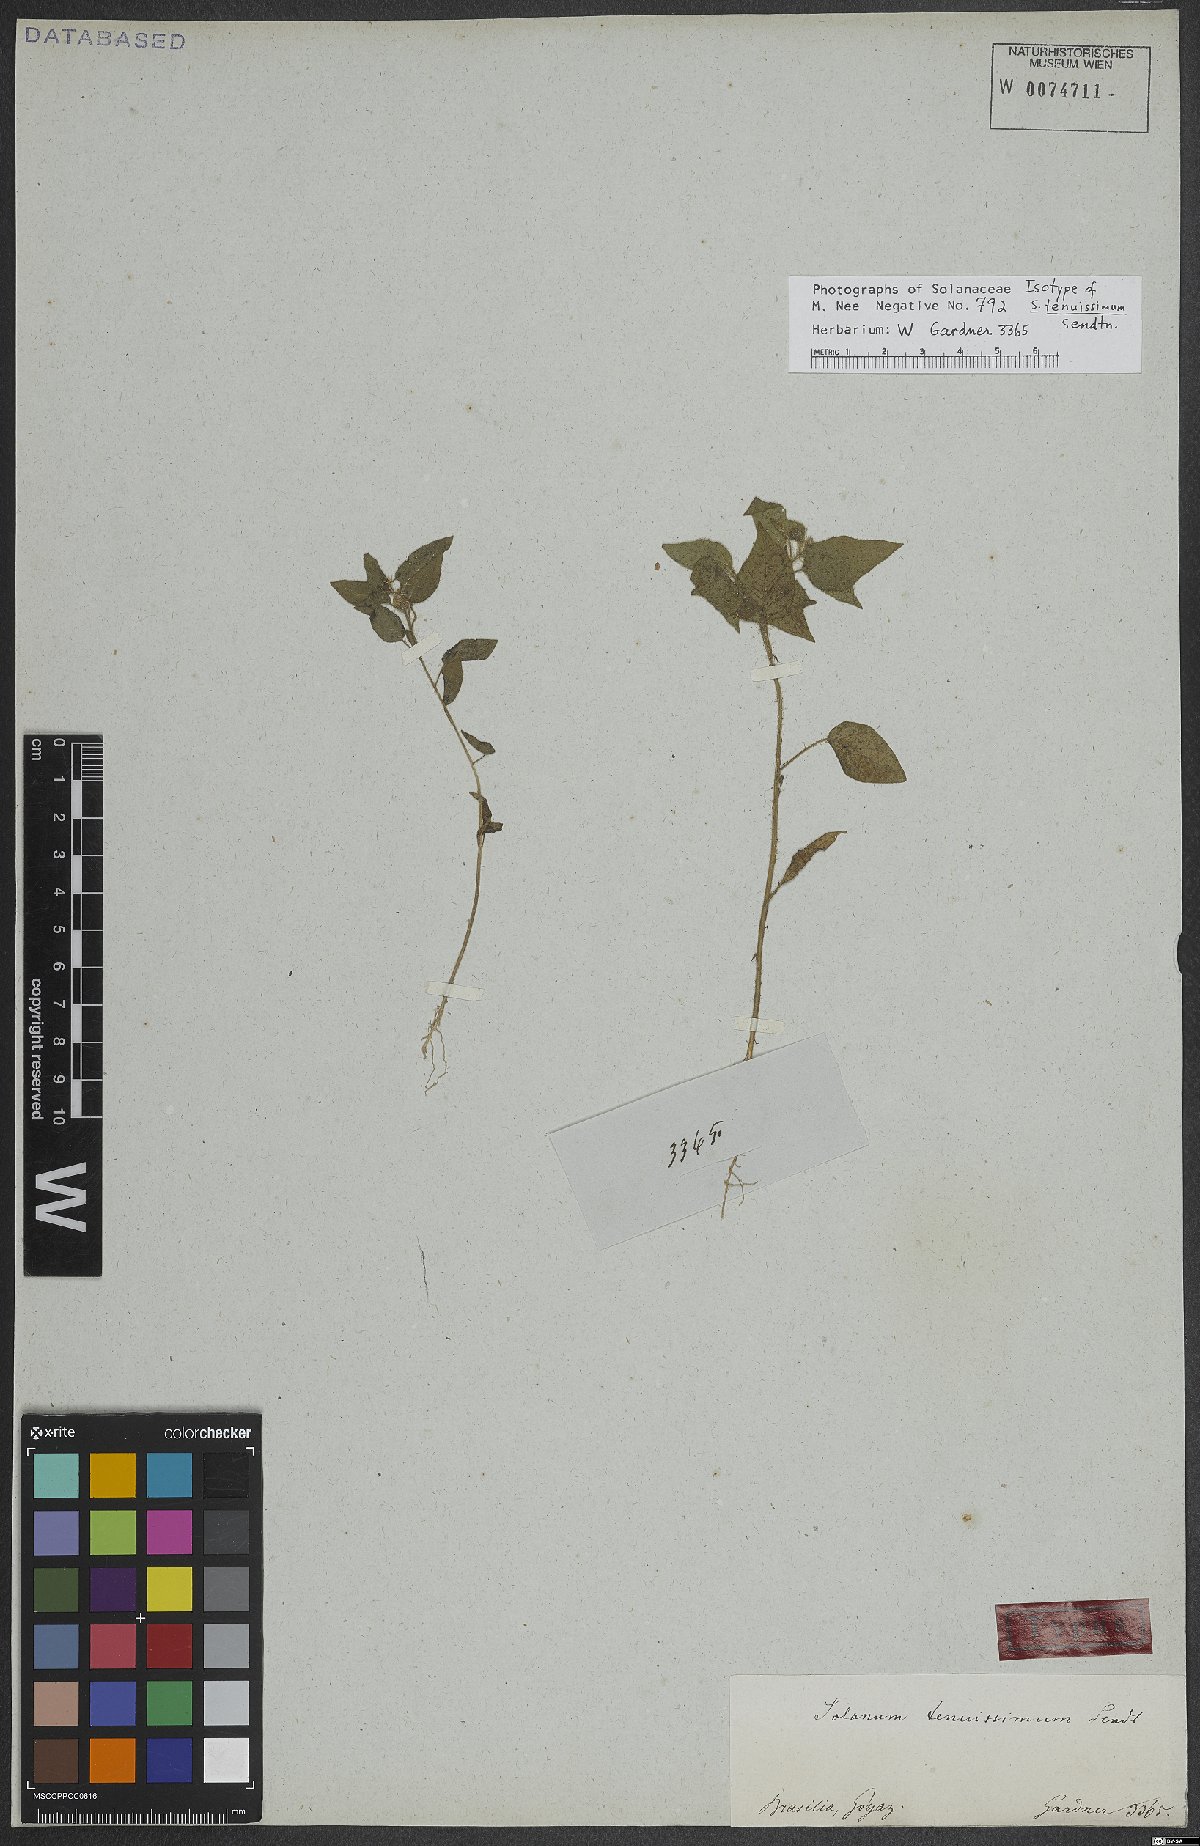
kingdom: Plantae
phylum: Tracheophyta
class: Magnoliopsida
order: Solanales
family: Solanaceae
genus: Solanum
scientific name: Solanum tenuissimum
